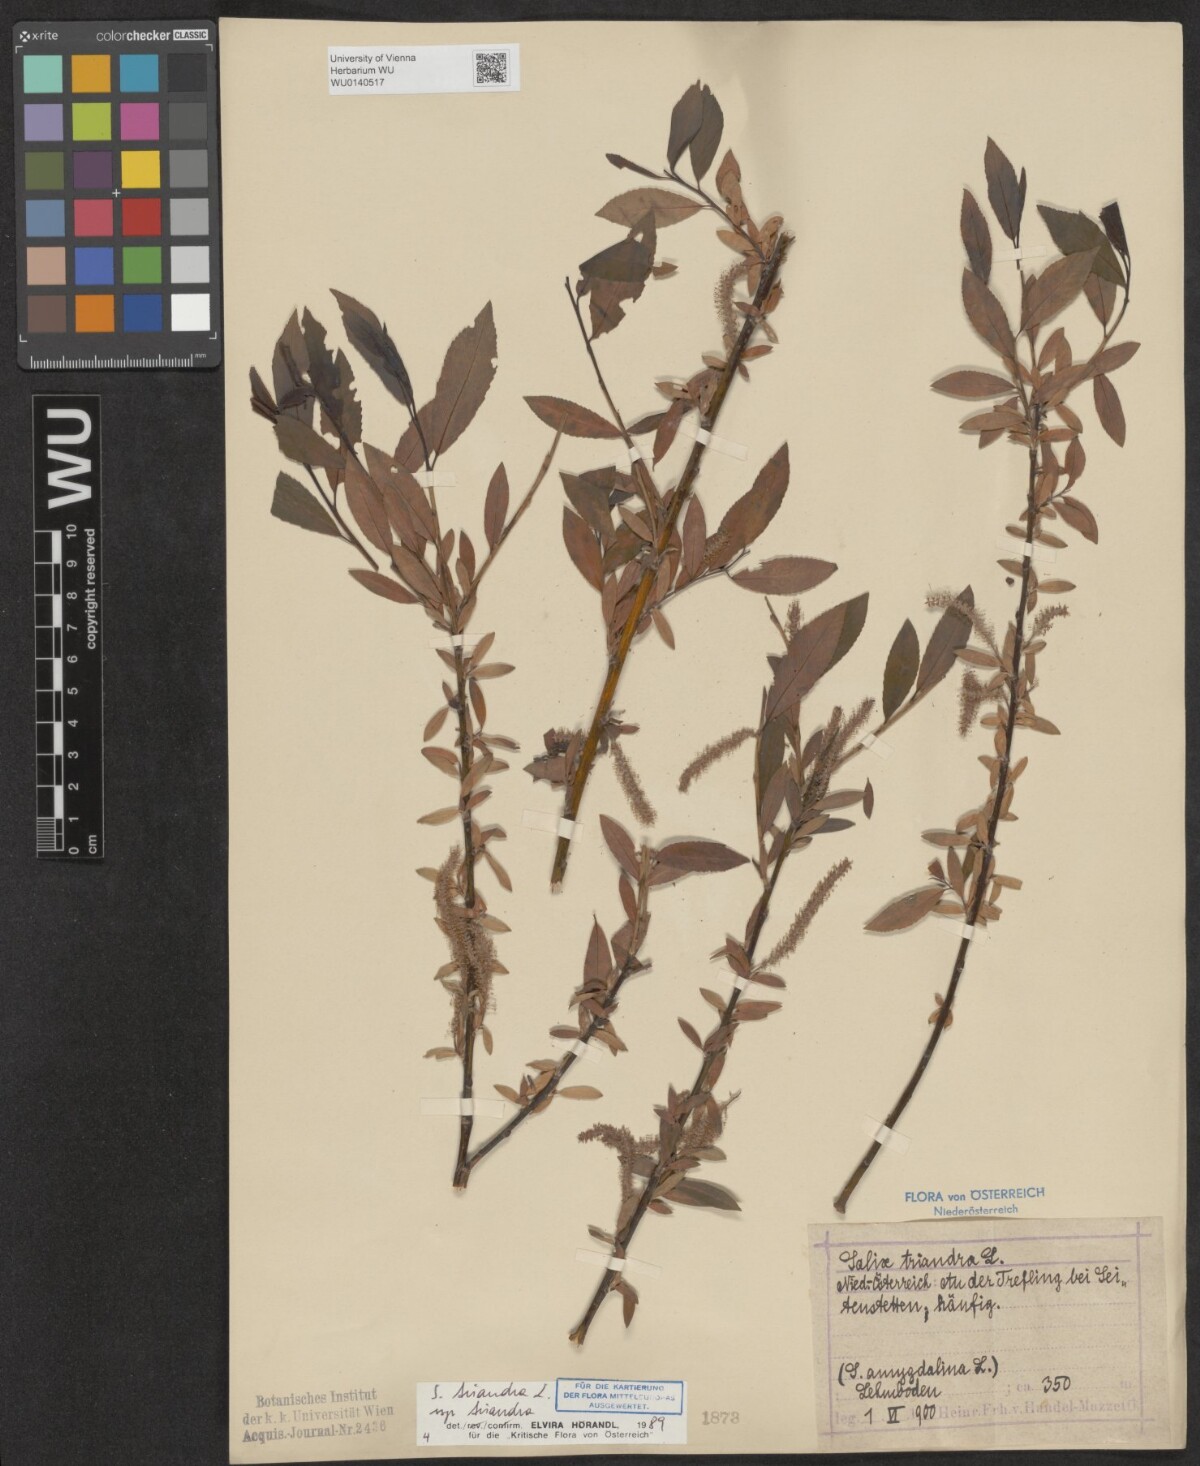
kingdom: Plantae
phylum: Tracheophyta
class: Magnoliopsida
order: Malpighiales
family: Salicaceae
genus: Salix
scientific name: Salix triandra
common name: Almond willow
